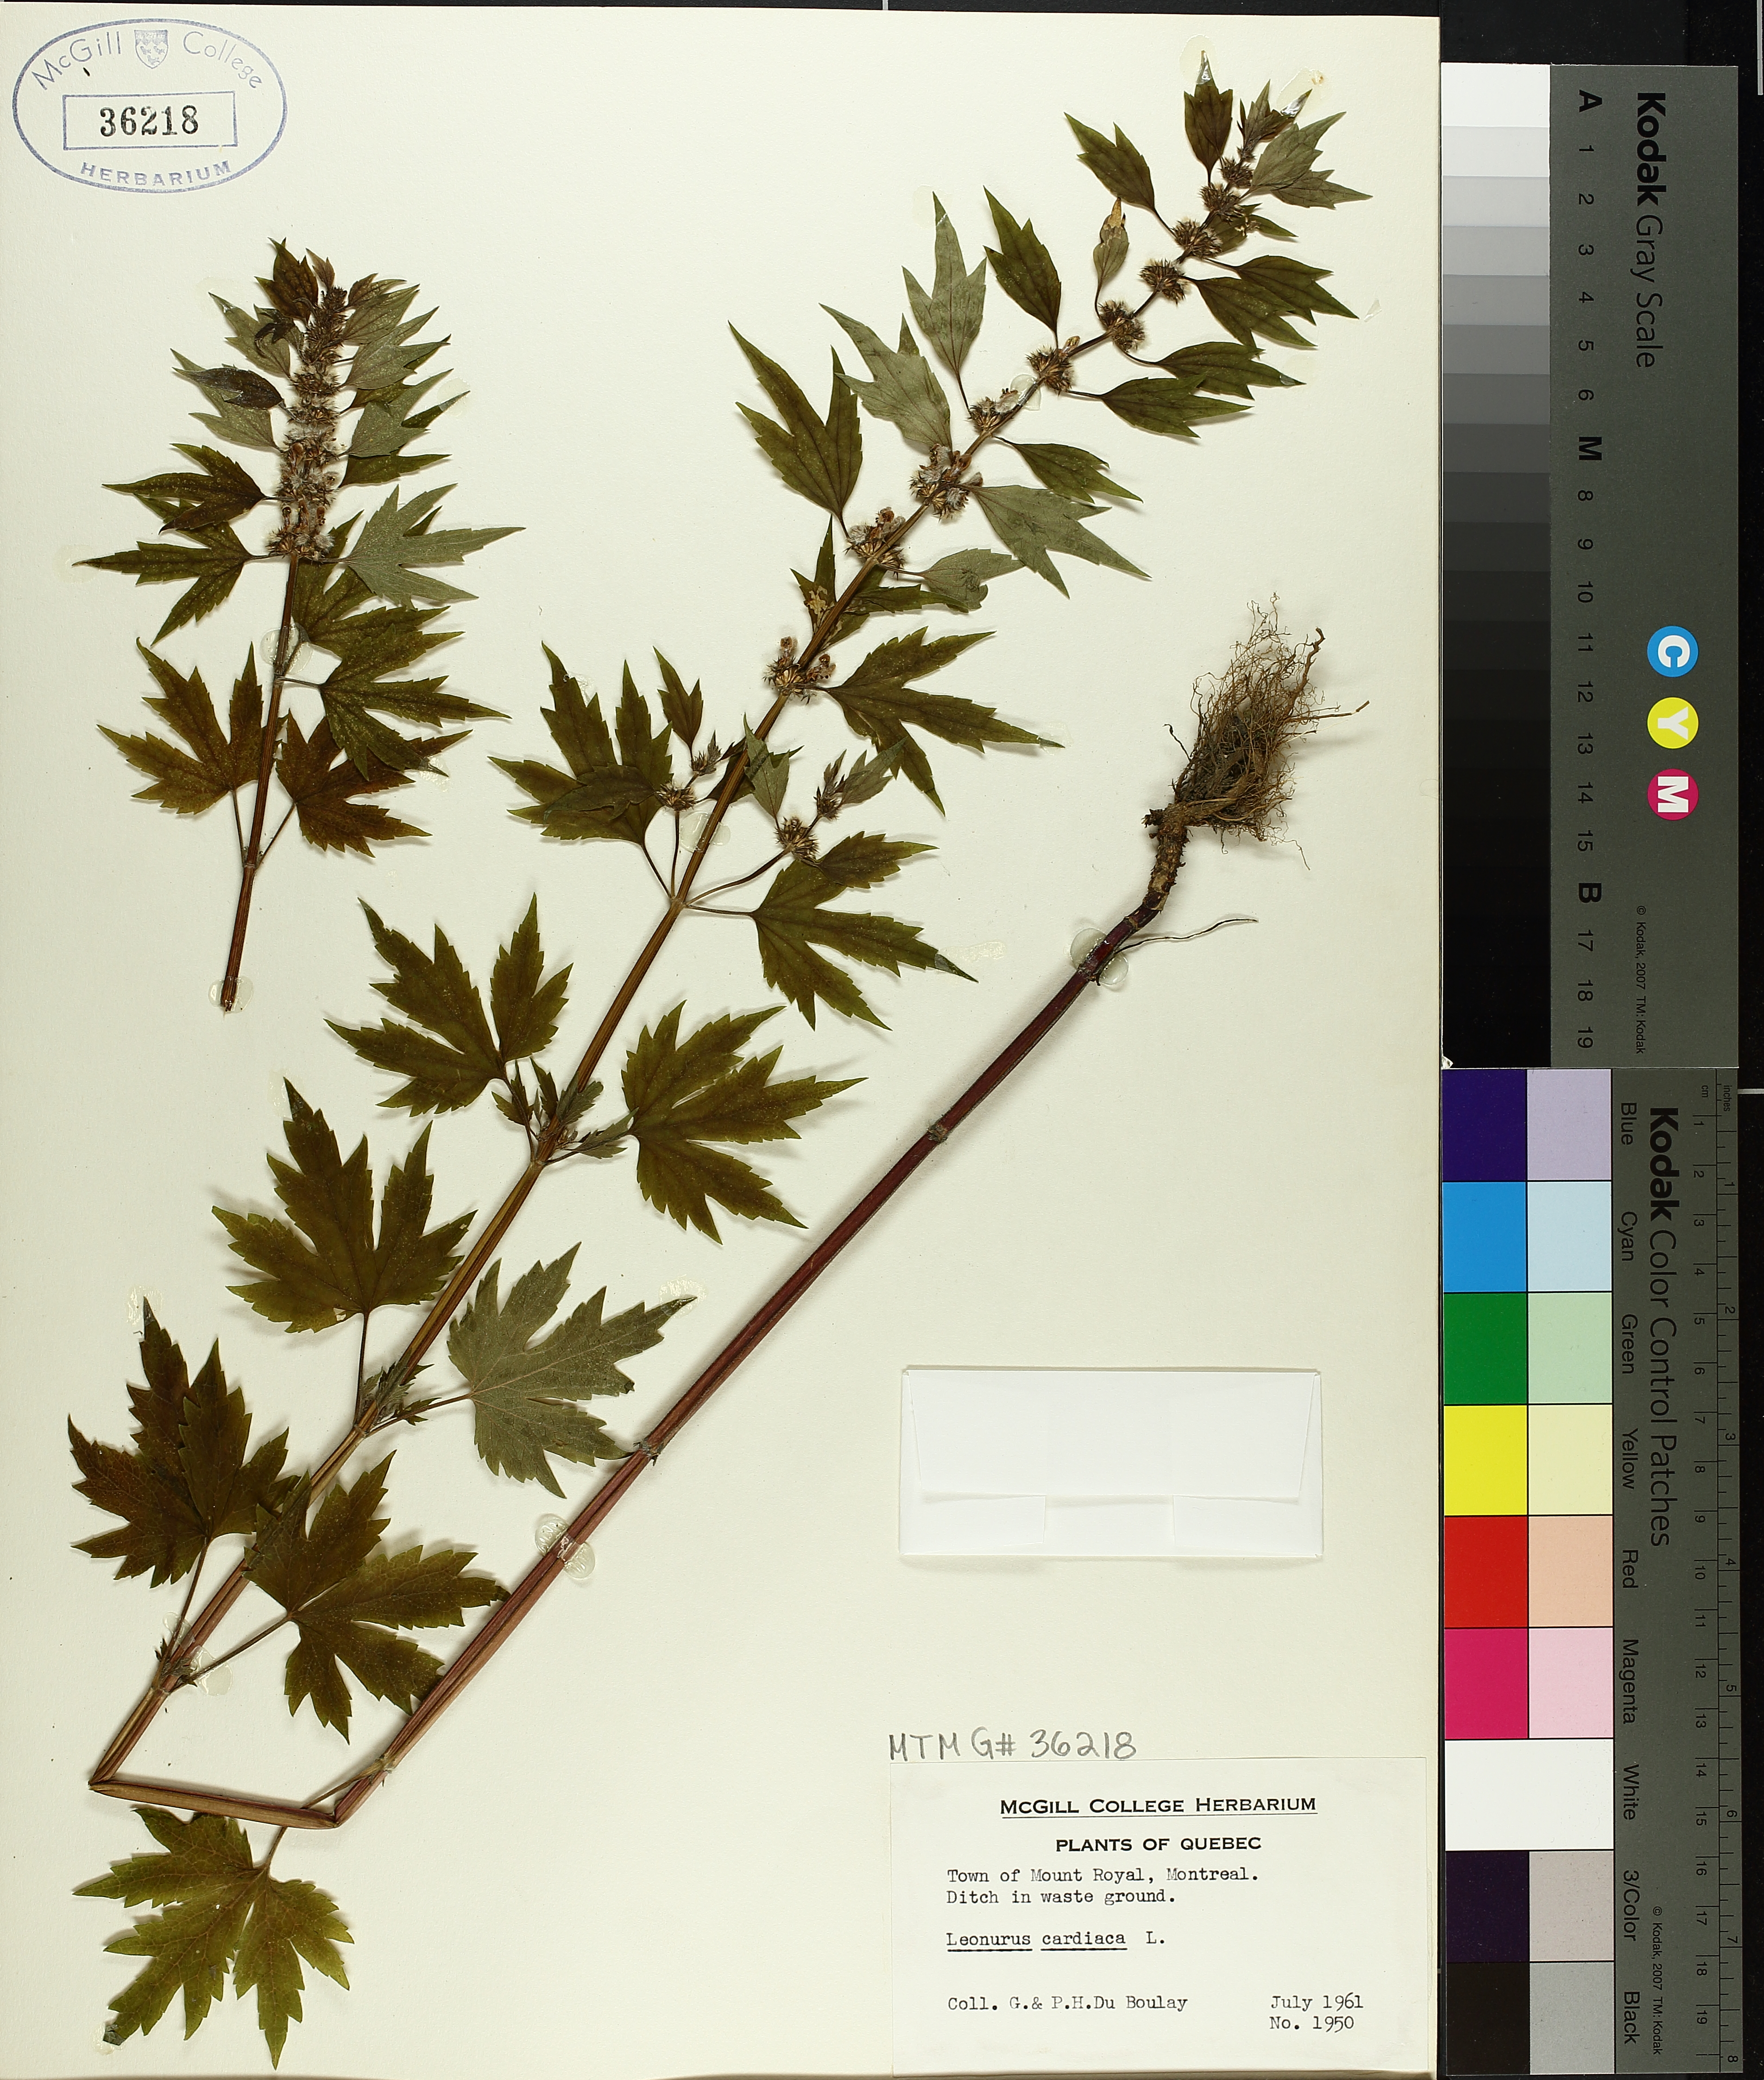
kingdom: Plantae
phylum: Tracheophyta
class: Magnoliopsida
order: Lamiales
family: Lamiaceae
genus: Leonurus
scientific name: Leonurus cardiaca
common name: Motherwort
